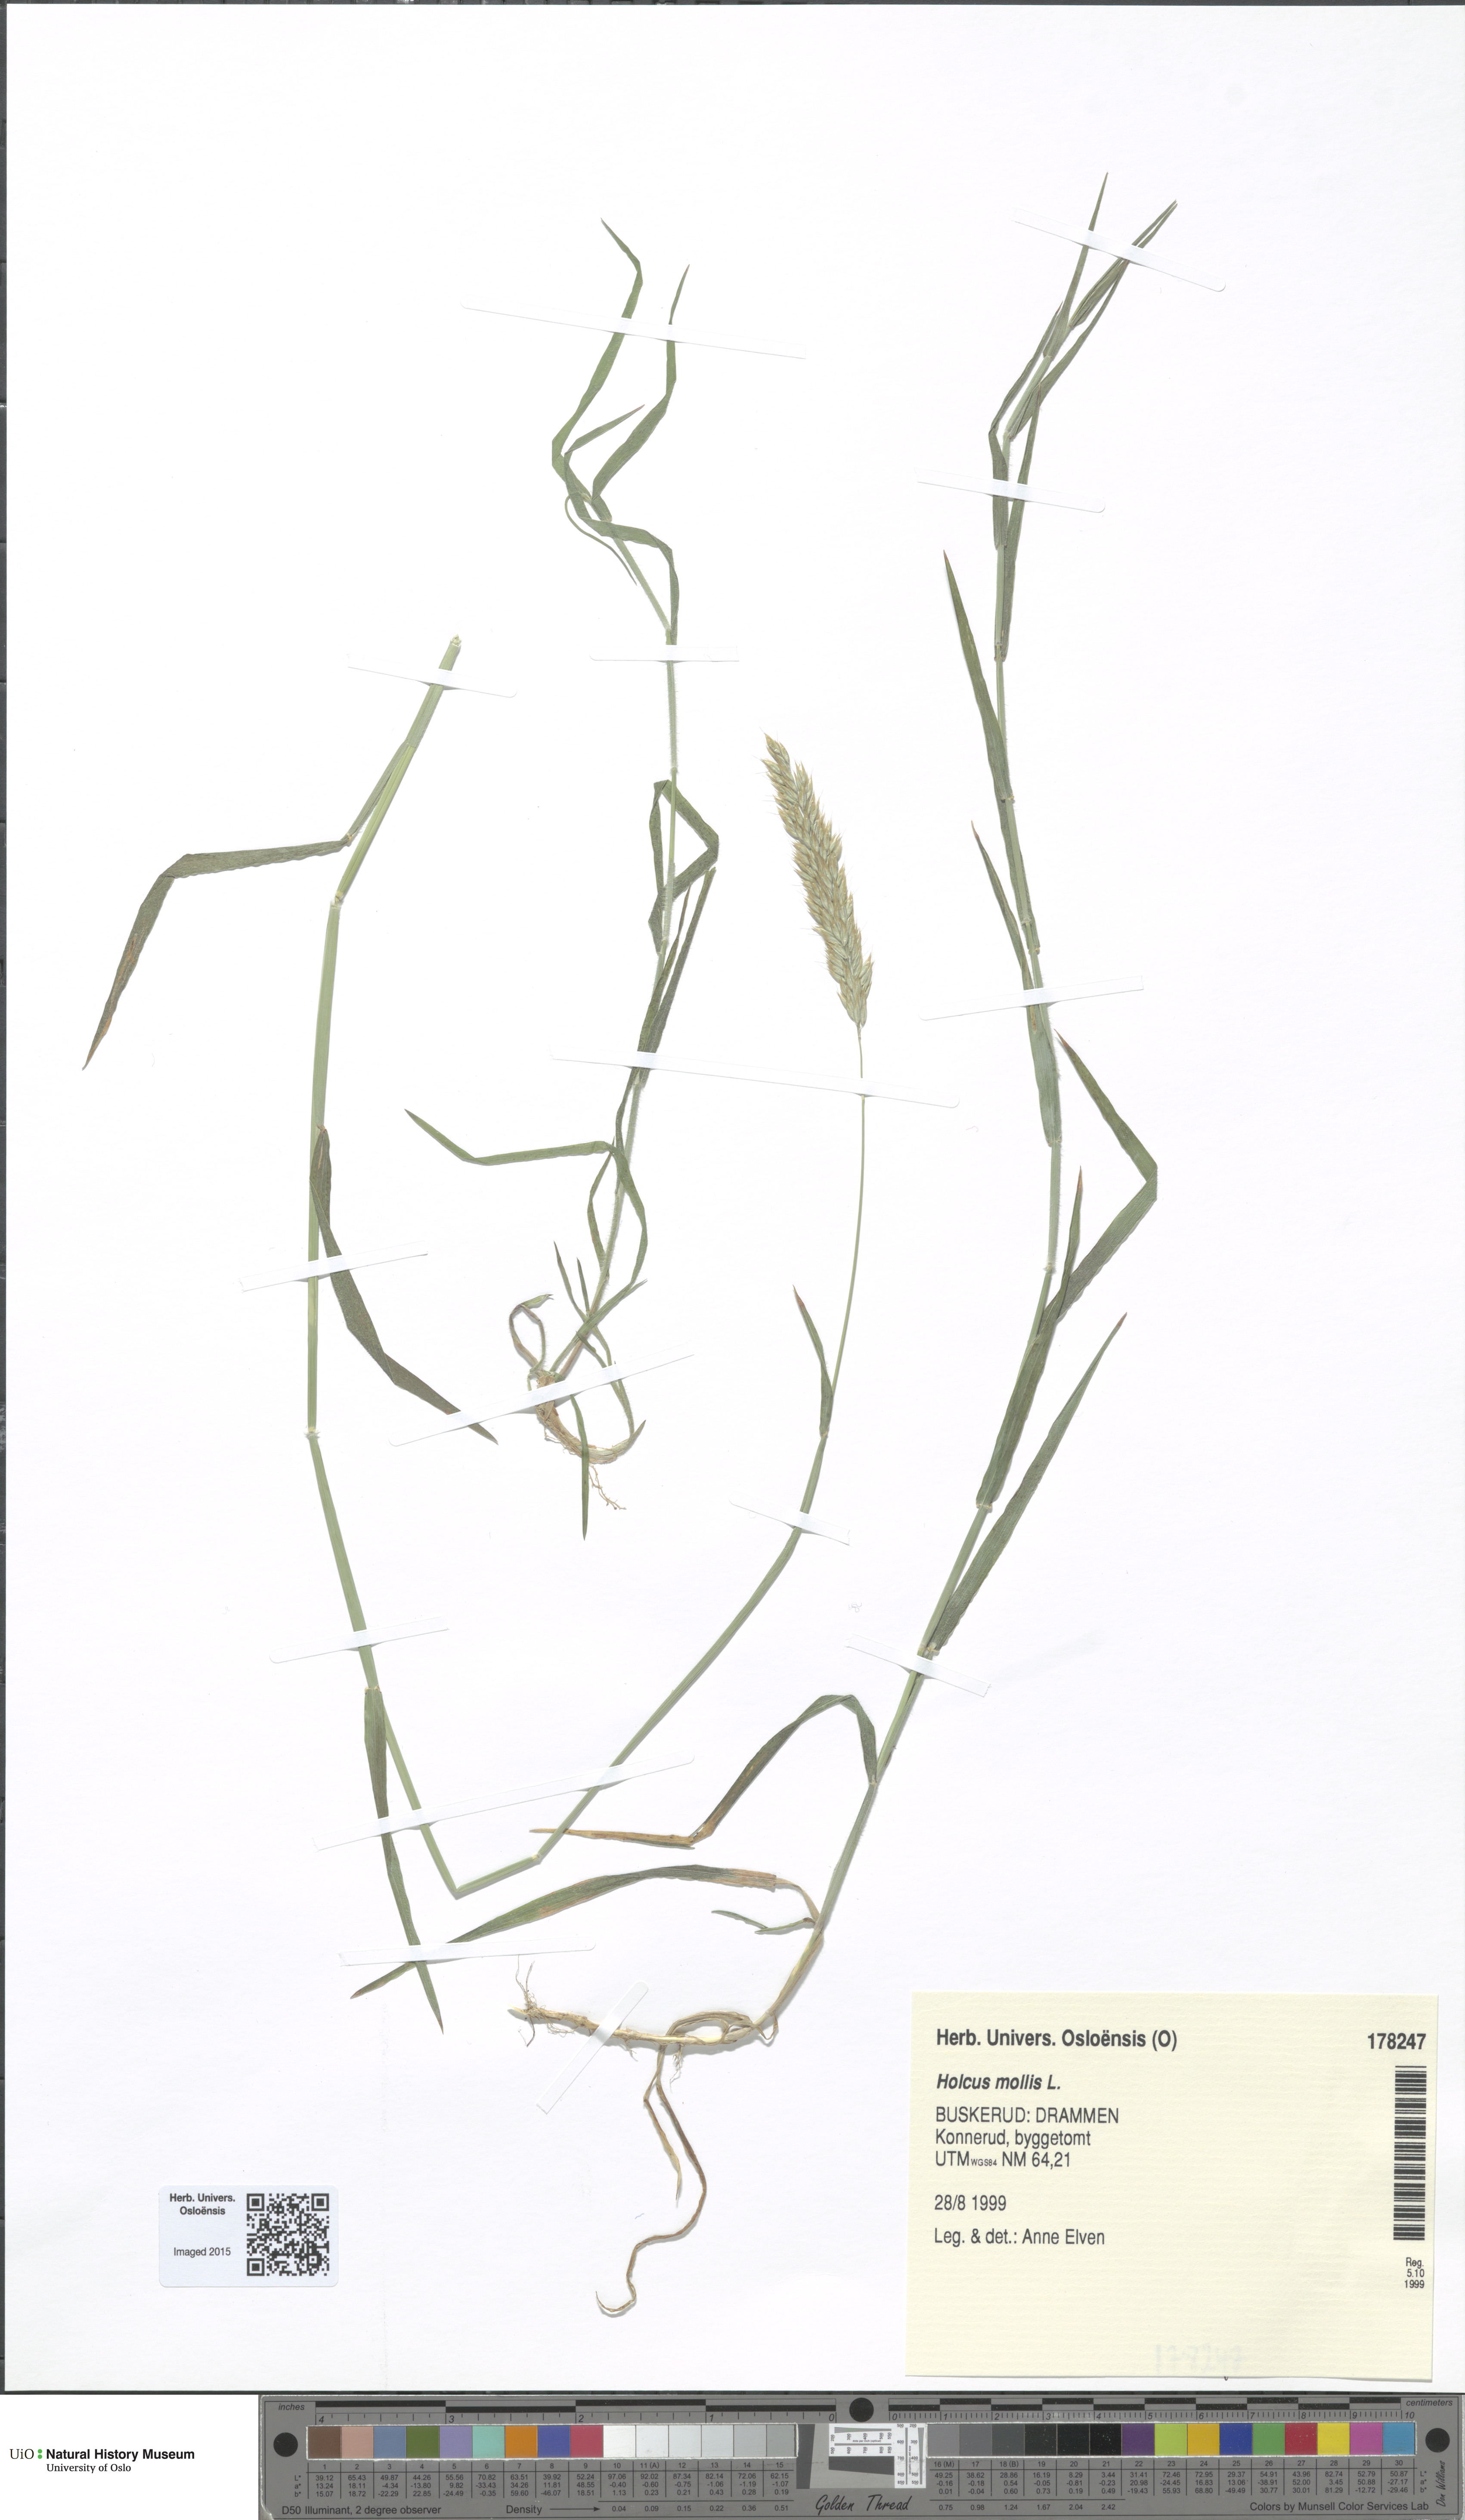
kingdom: Plantae
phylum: Tracheophyta
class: Liliopsida
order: Poales
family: Poaceae
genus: Holcus
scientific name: Holcus mollis
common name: Creeping velvetgrass
